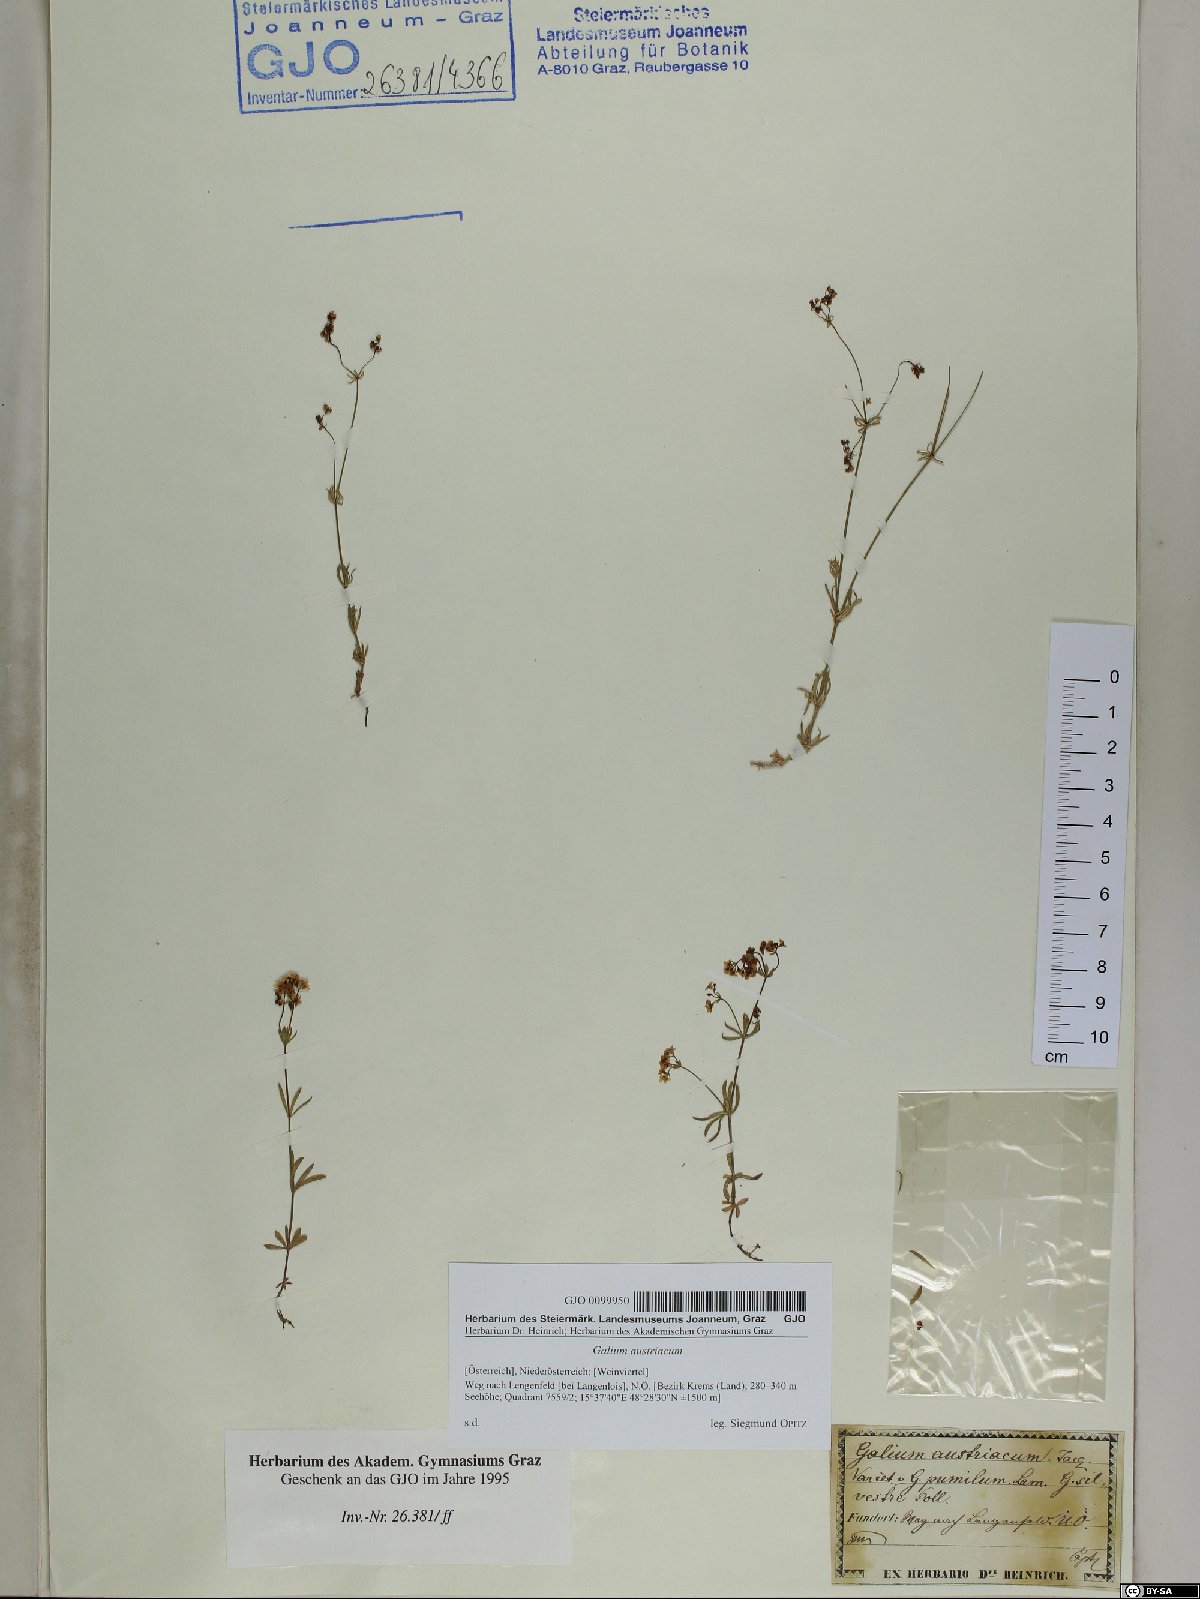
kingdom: Plantae
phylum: Tracheophyta
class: Magnoliopsida
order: Gentianales
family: Rubiaceae
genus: Galium
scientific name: Galium austriacum
